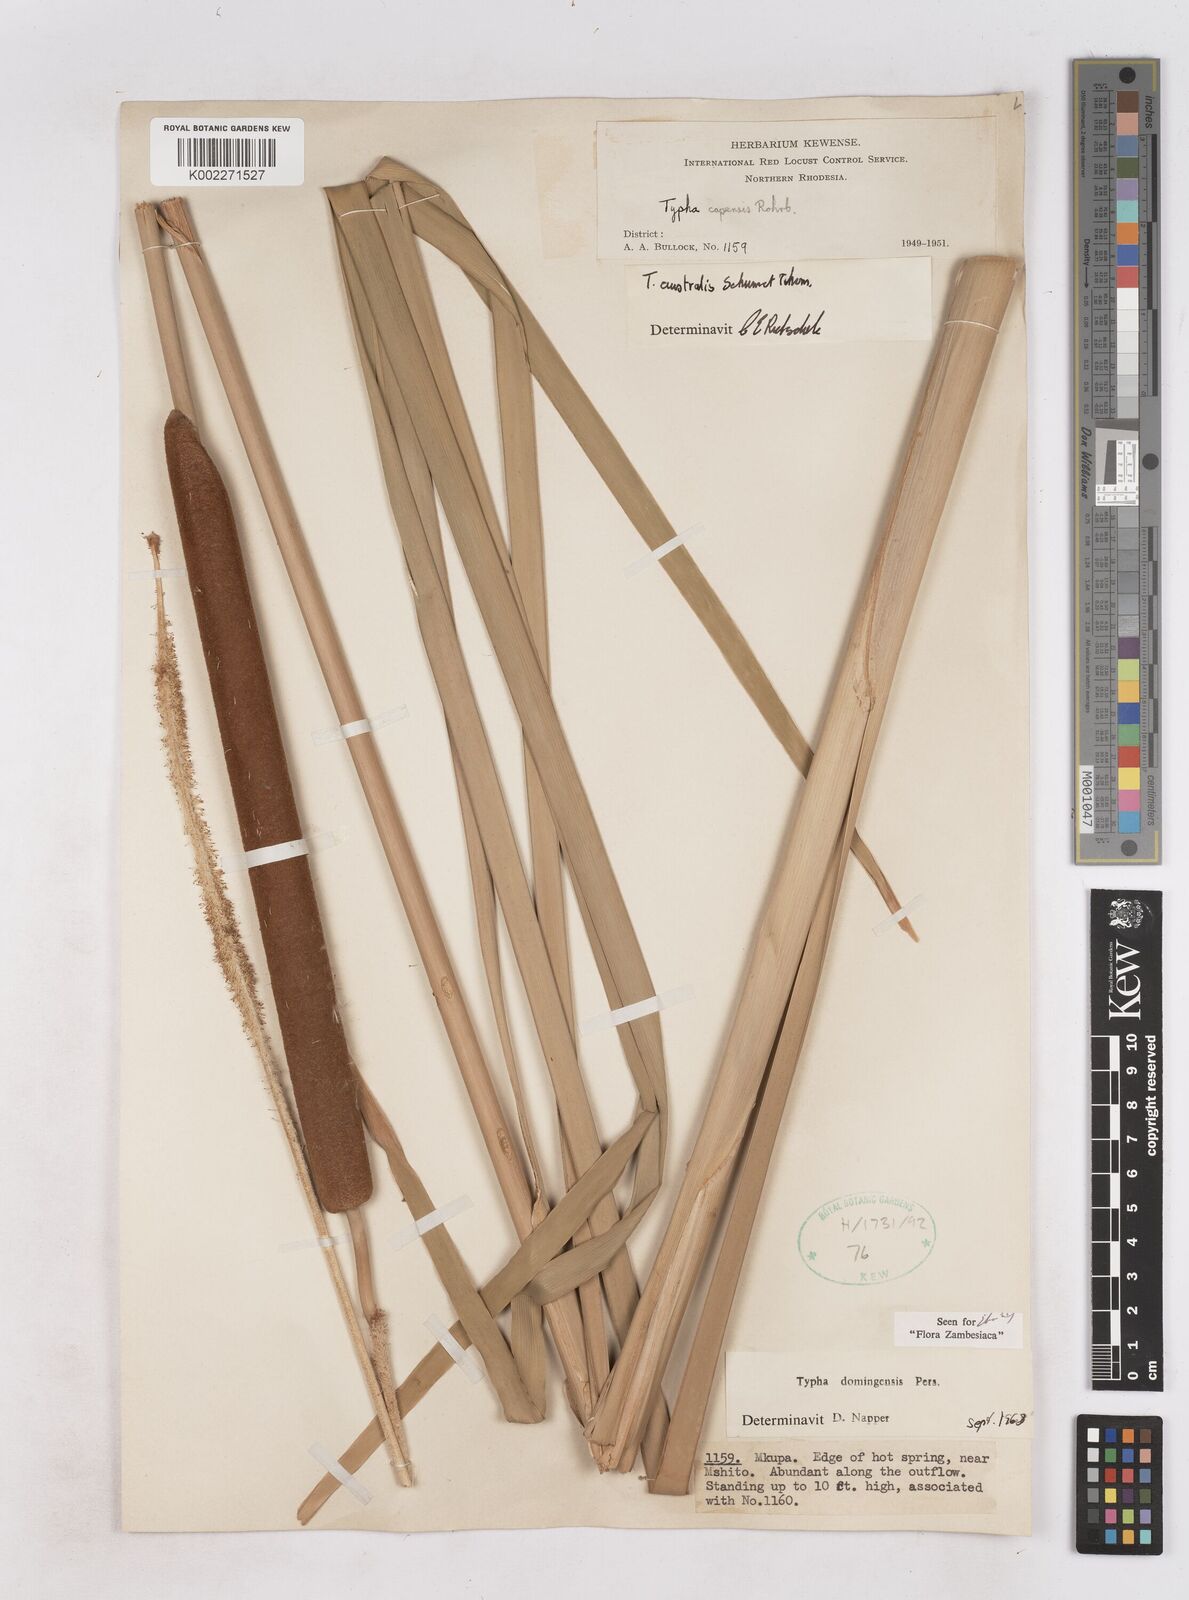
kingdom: Plantae
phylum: Tracheophyta
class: Liliopsida
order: Poales
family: Typhaceae
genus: Typha
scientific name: Typha domingensis
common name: Southern cattail
